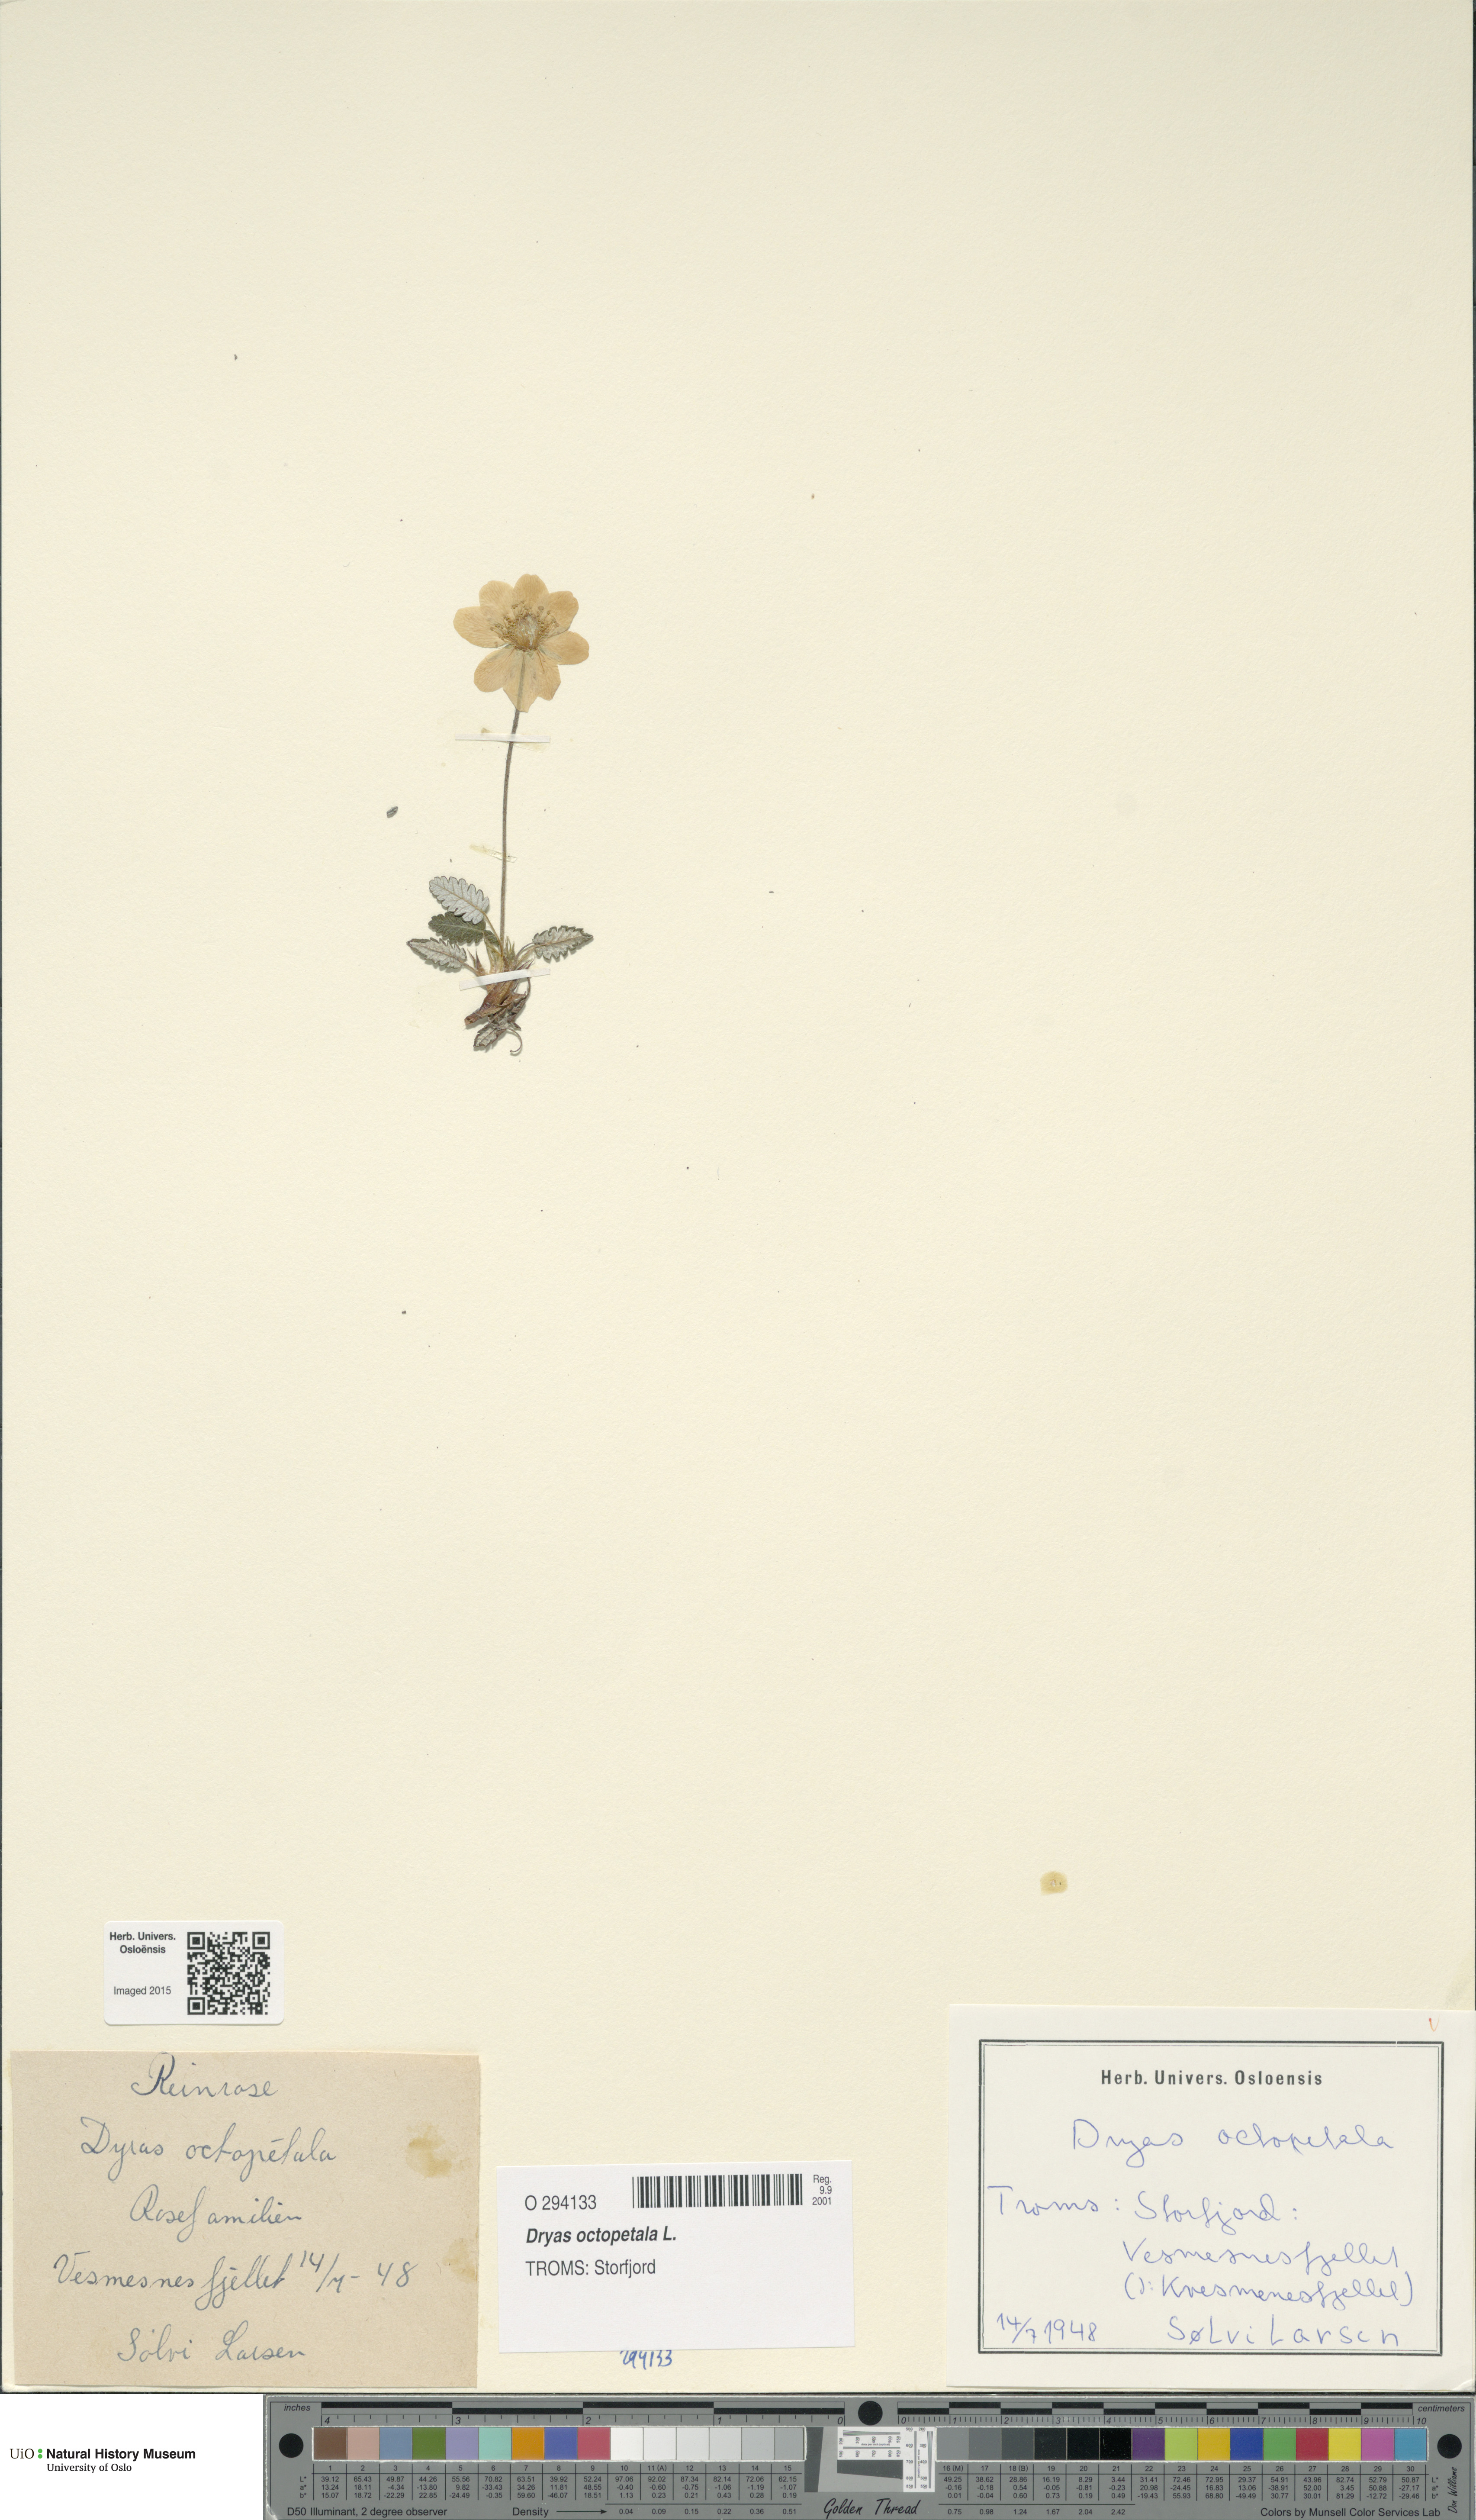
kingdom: Plantae
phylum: Tracheophyta
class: Magnoliopsida
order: Rosales
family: Rosaceae
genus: Dryas
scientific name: Dryas octopetala
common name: Eight-petal mountain-avens
